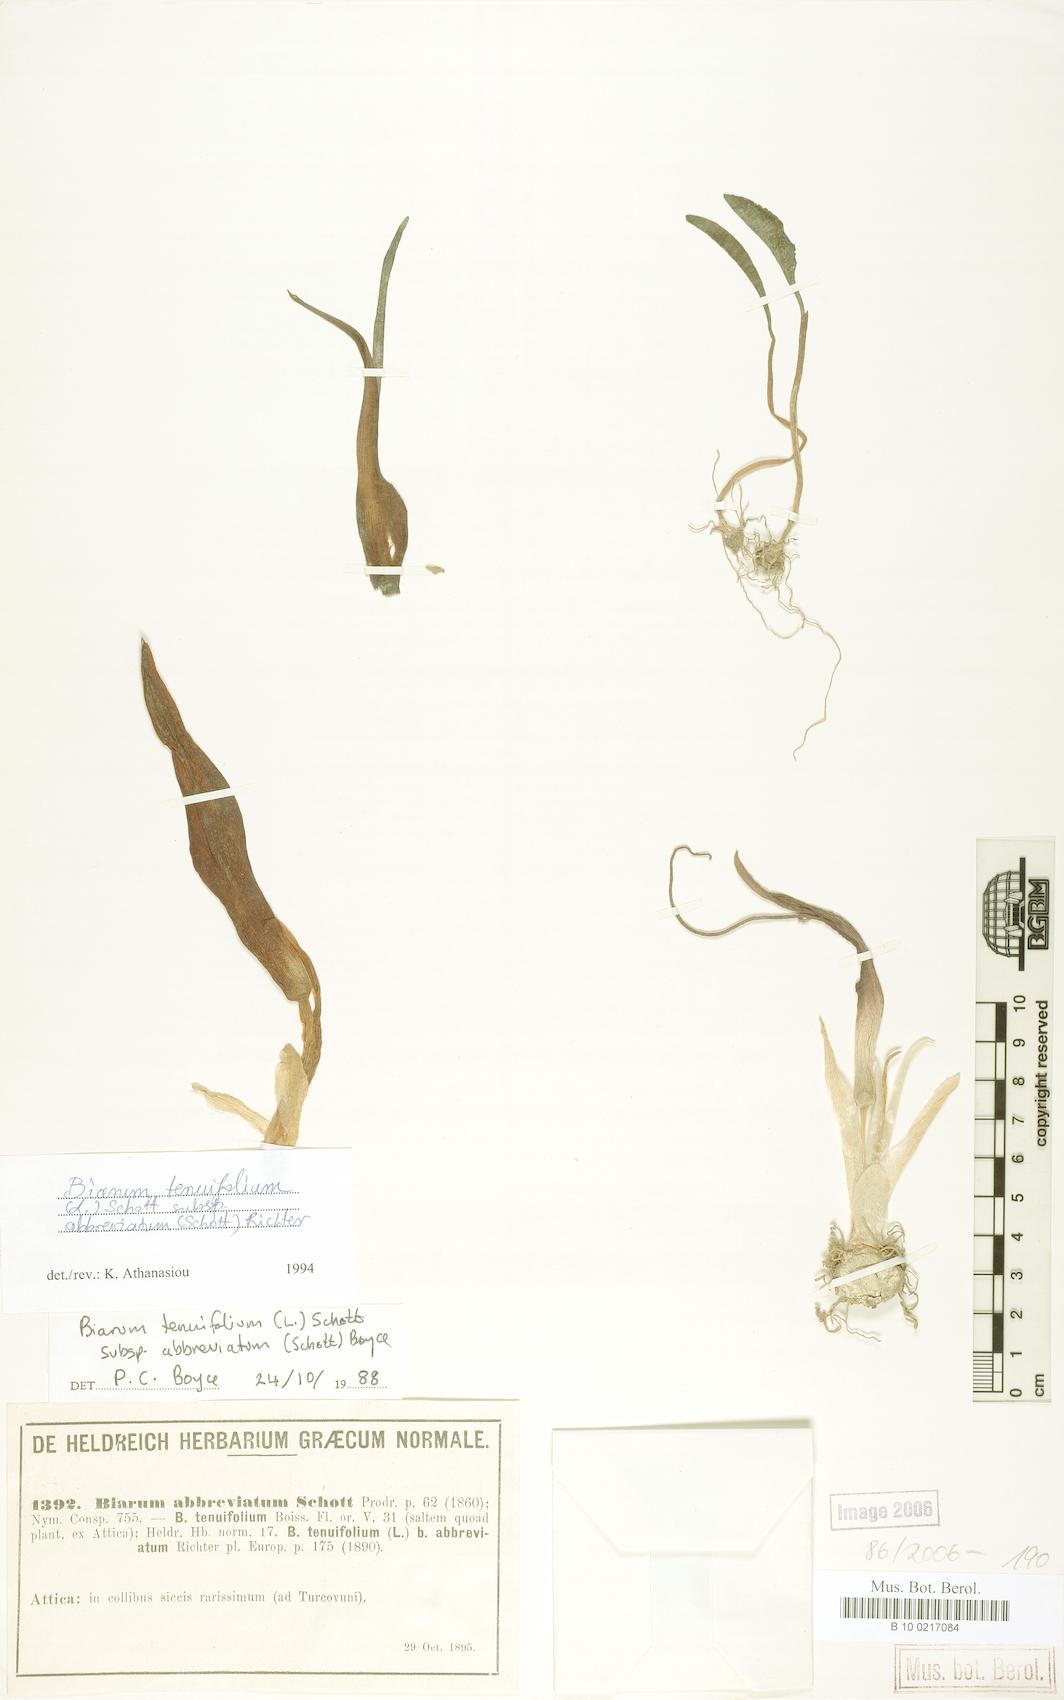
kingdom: Plantae
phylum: Tracheophyta
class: Liliopsida
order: Alismatales
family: Araceae
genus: Biarum
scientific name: Biarum tenuifolium
